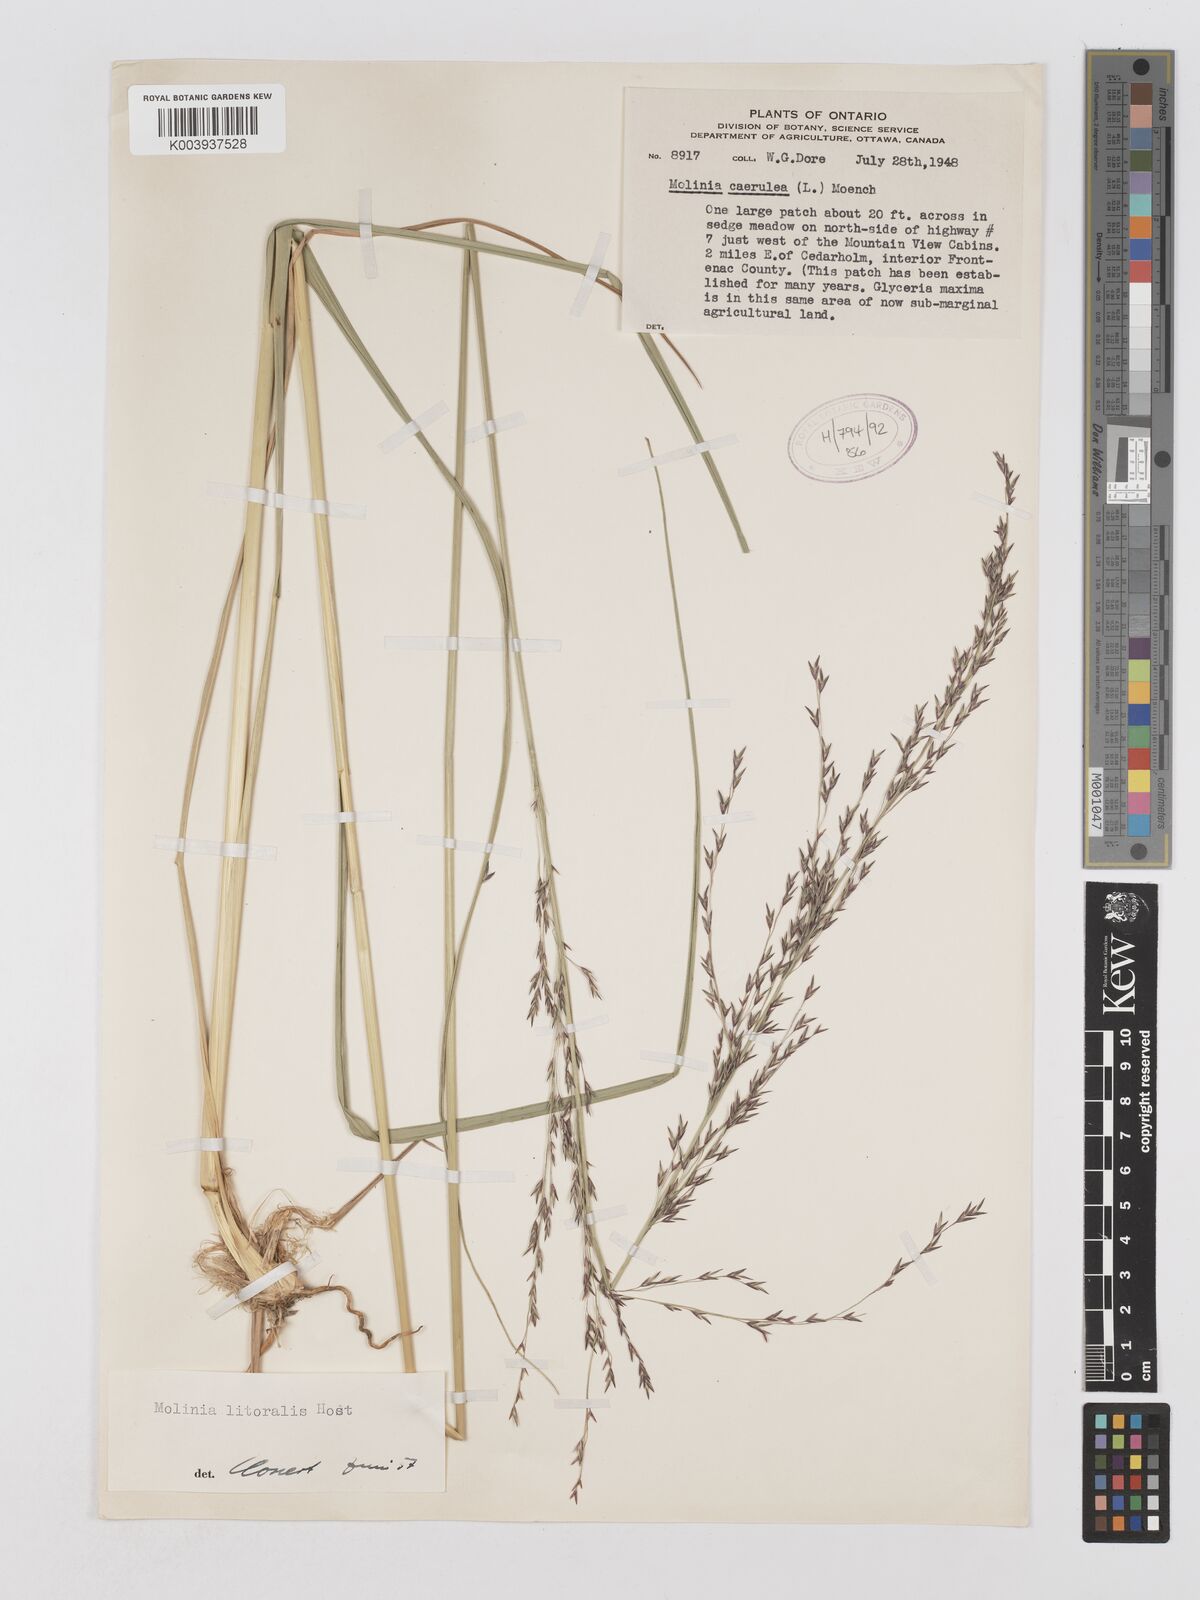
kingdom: Plantae
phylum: Tracheophyta
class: Liliopsida
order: Poales
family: Poaceae
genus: Molinia
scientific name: Molinia caerulea
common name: Purple moor-grass
